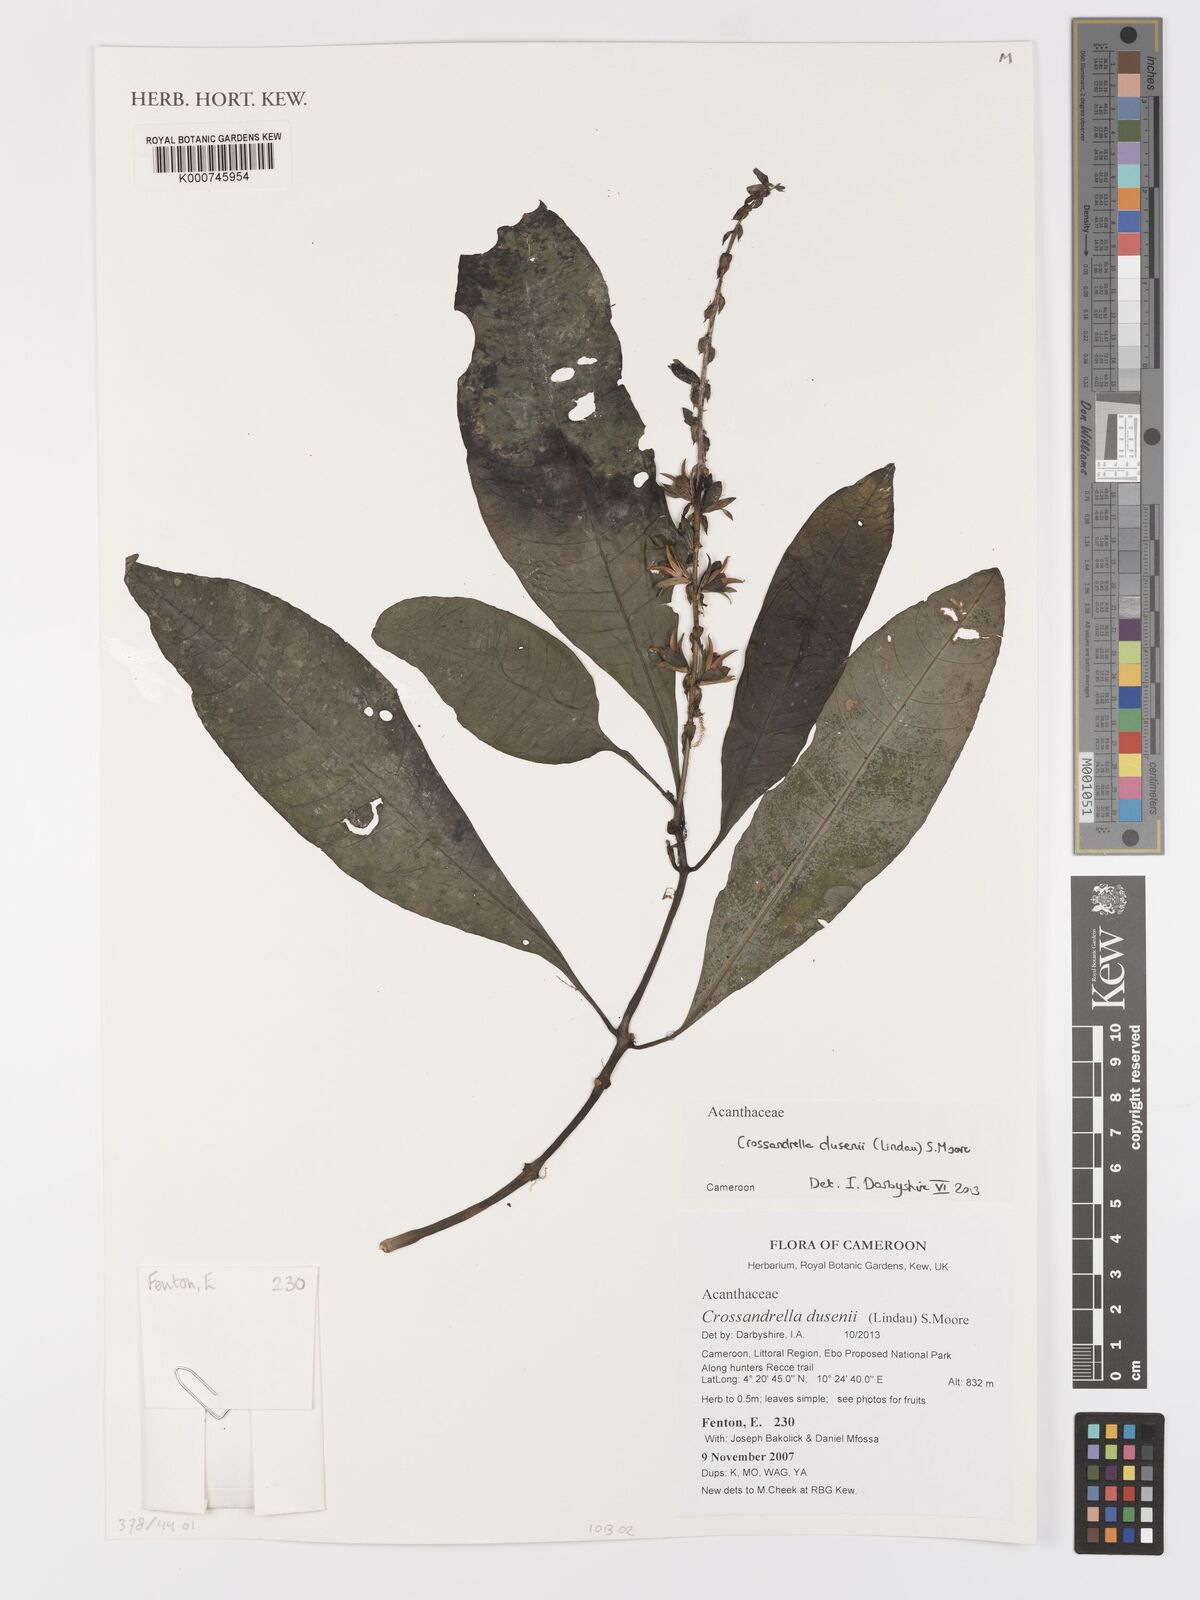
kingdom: Plantae
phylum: Tracheophyta
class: Magnoliopsida
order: Lamiales
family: Acanthaceae
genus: Crossandrella
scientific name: Crossandrella dusenii
